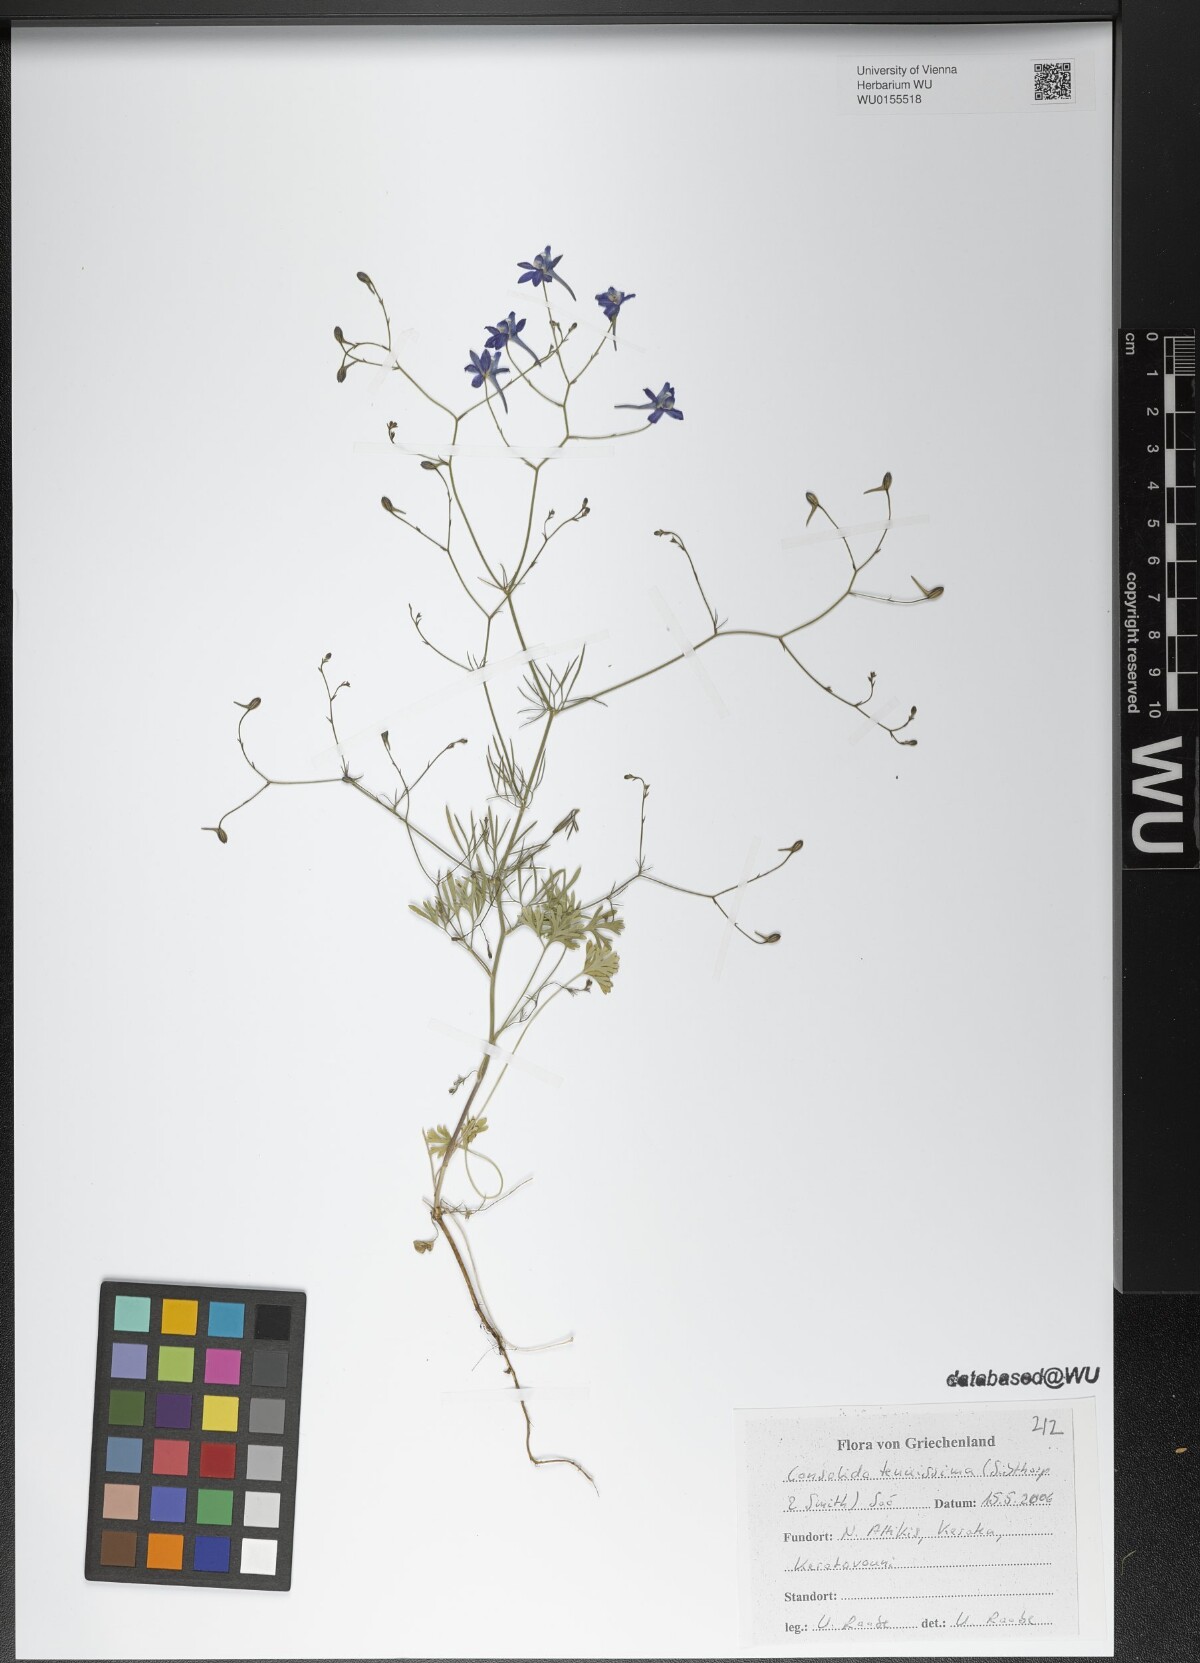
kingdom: Plantae
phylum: Tracheophyta
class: Magnoliopsida
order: Ranunculales
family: Ranunculaceae
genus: Delphinium
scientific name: Delphinium tenuissimum
